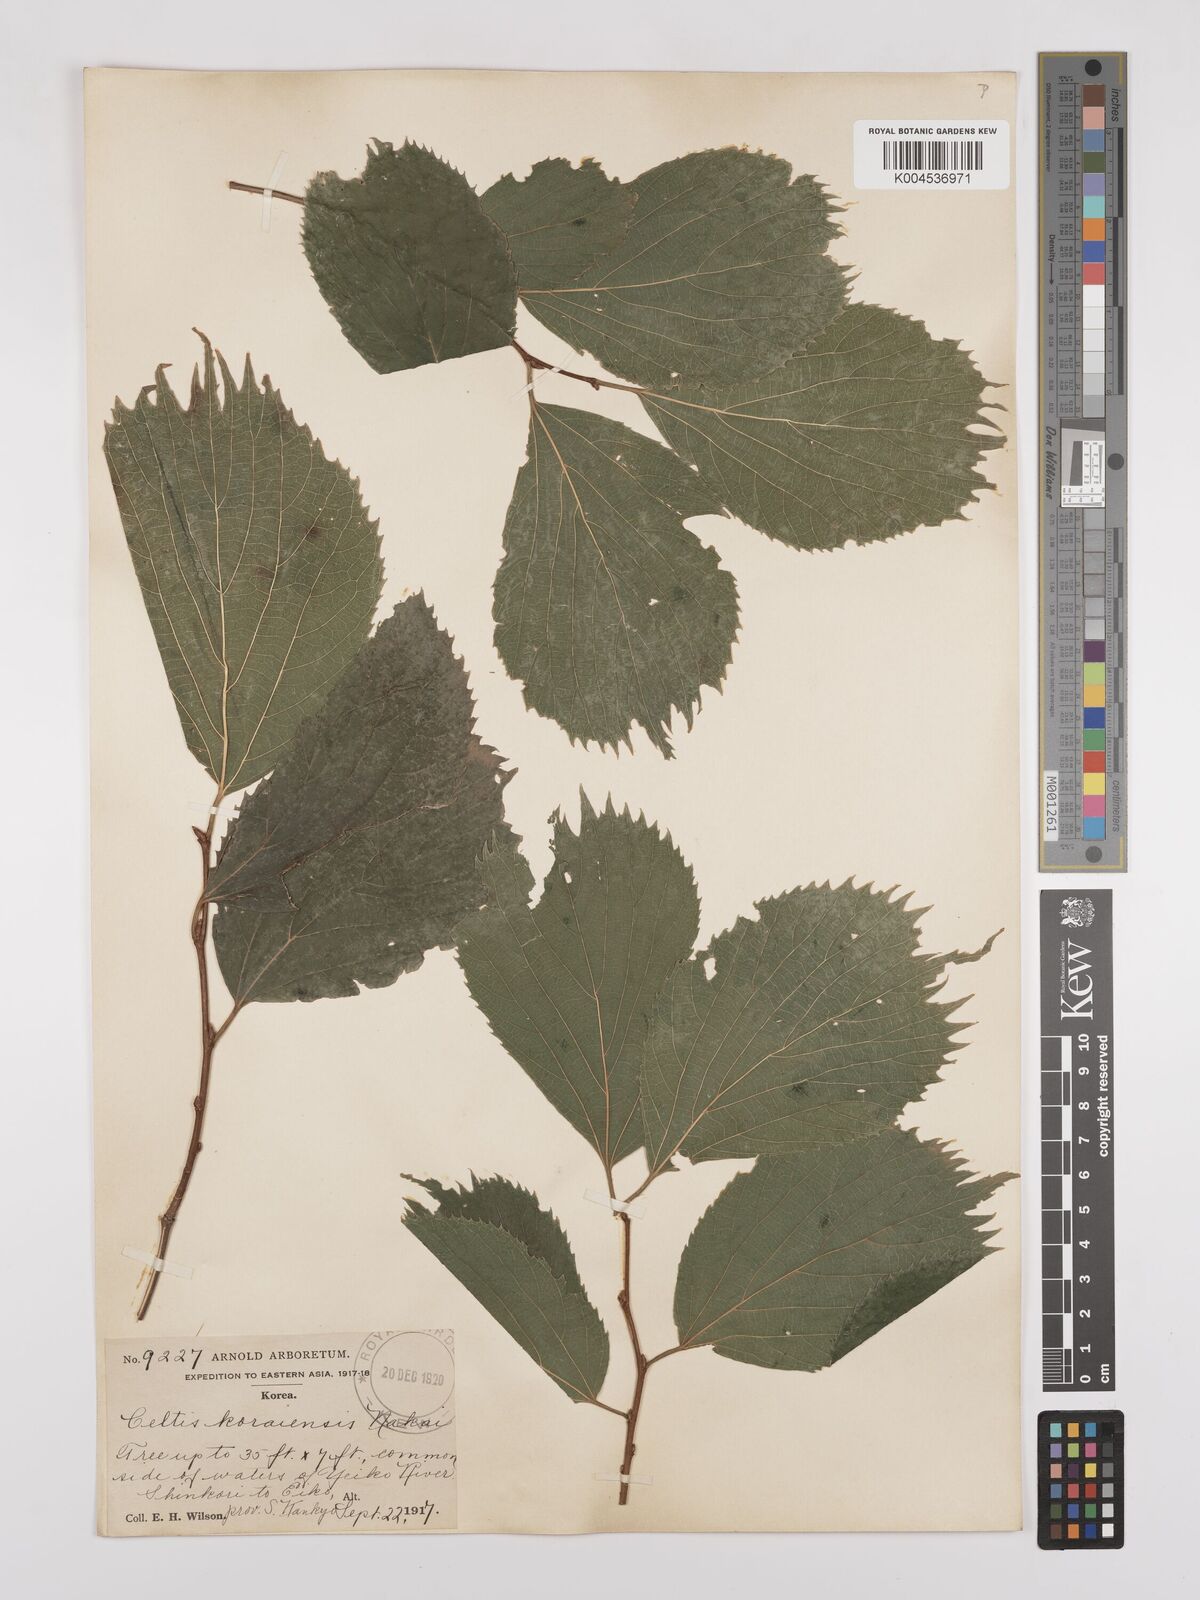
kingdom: Plantae
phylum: Tracheophyta
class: Magnoliopsida
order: Rosales
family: Cannabaceae
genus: Celtis
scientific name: Celtis koraiensis
